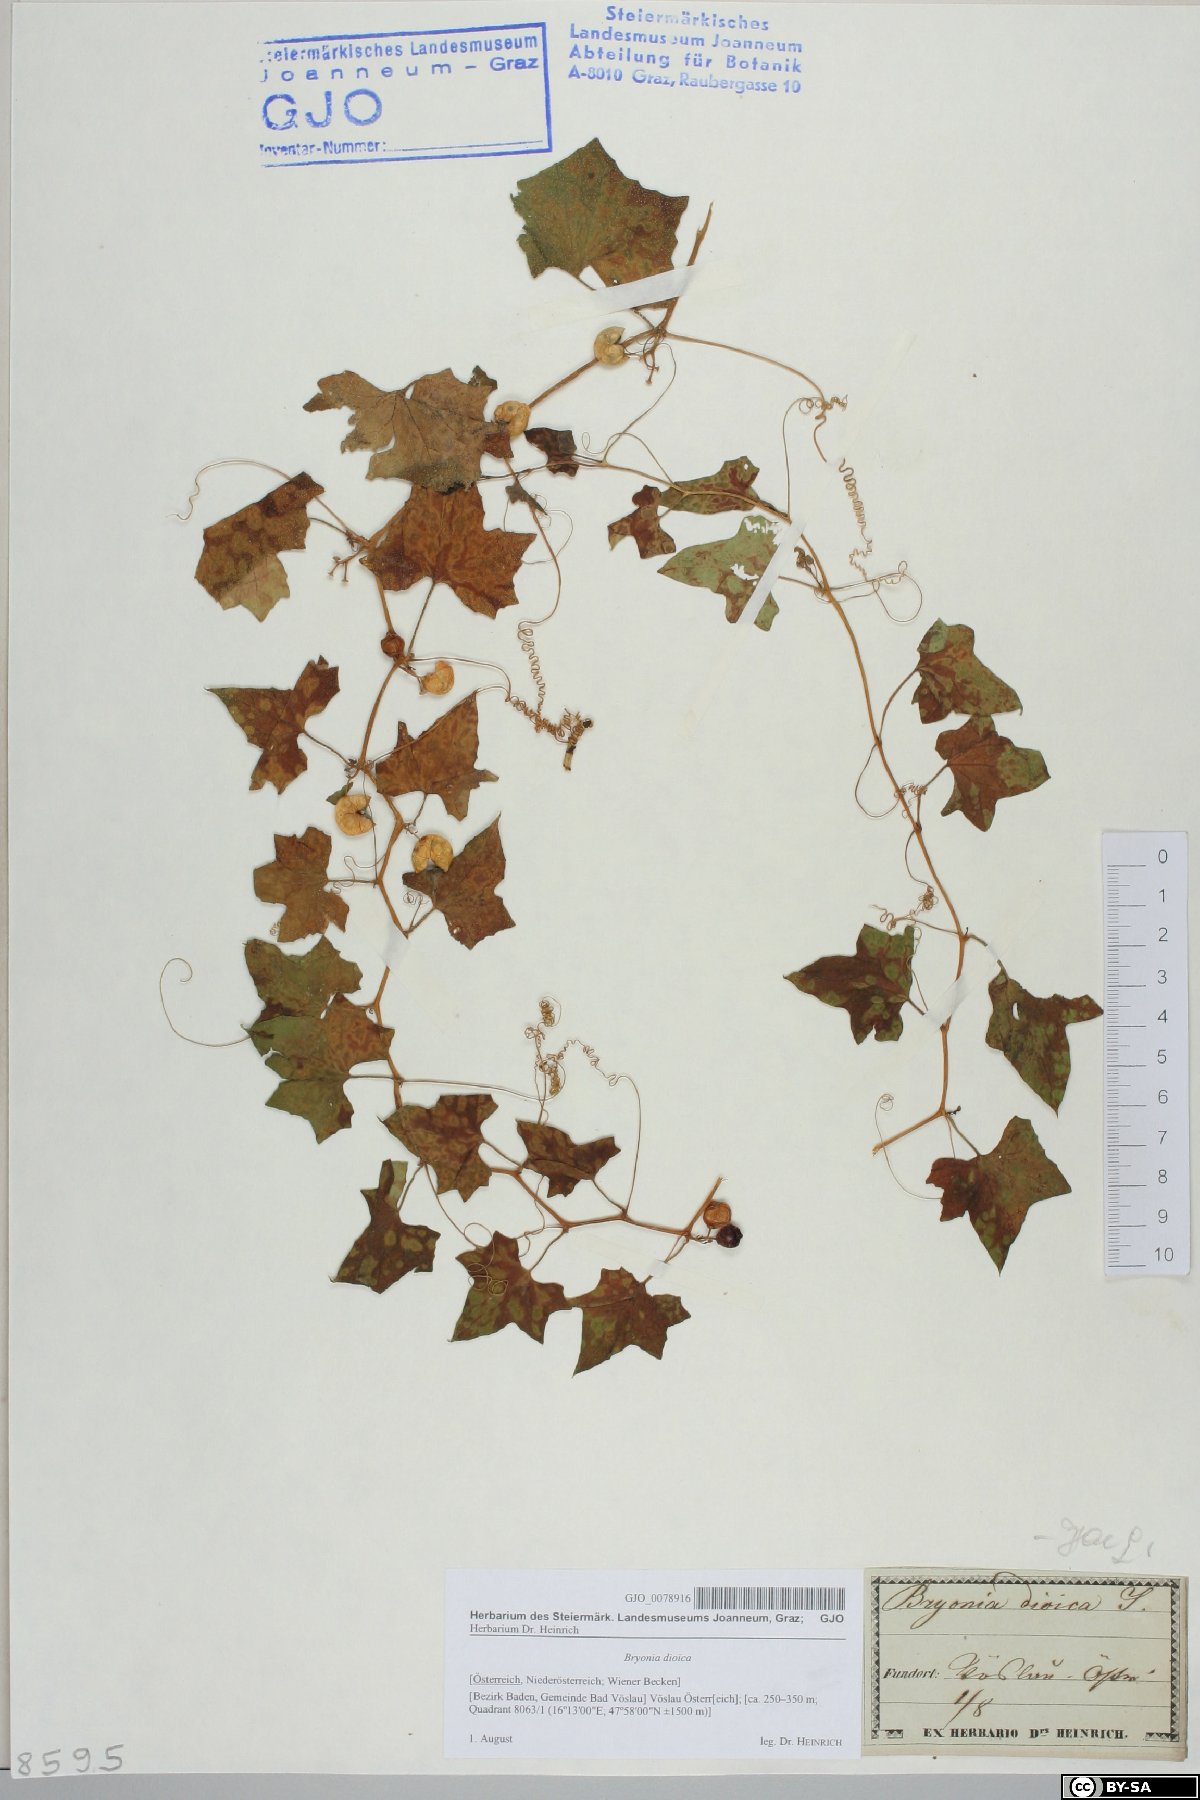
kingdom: Plantae
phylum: Tracheophyta
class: Magnoliopsida
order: Cucurbitales
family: Cucurbitaceae
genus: Bryonia
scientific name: Bryonia dioica
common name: White bryony
